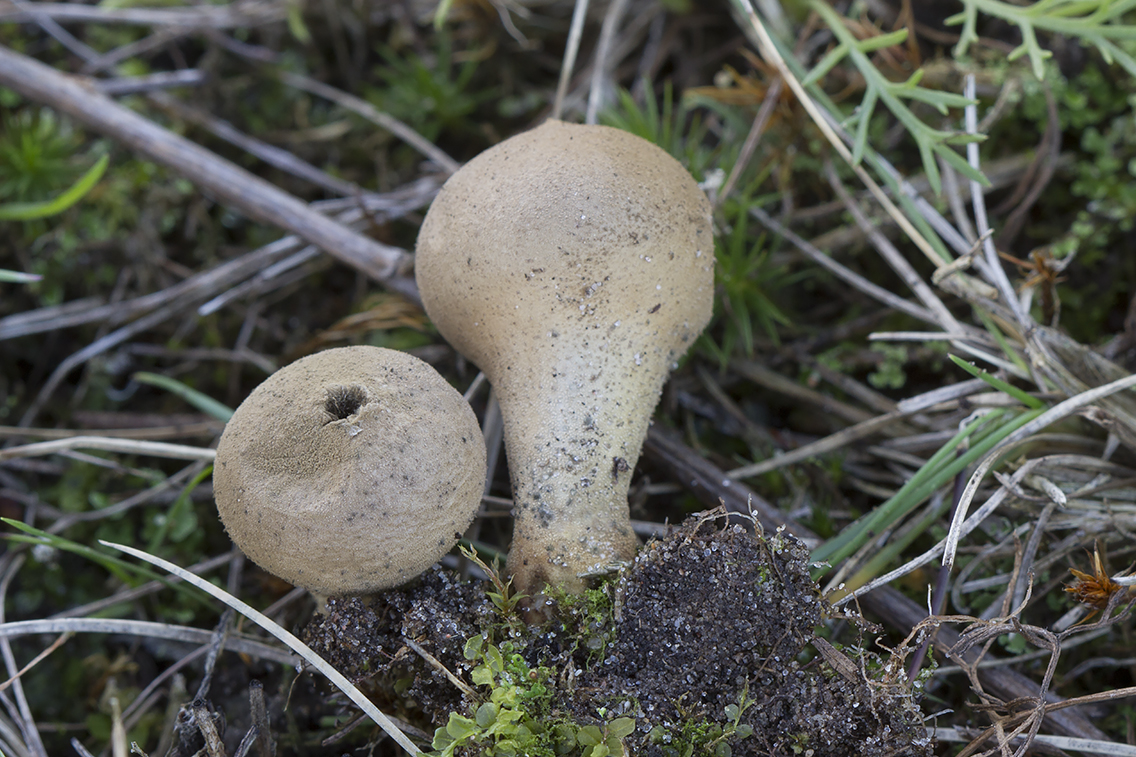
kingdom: Fungi
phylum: Basidiomycota
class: Agaricomycetes
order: Agaricales
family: Lycoperdaceae
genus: Lycoperdon
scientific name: Lycoperdon lividum
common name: mark-støvbold
